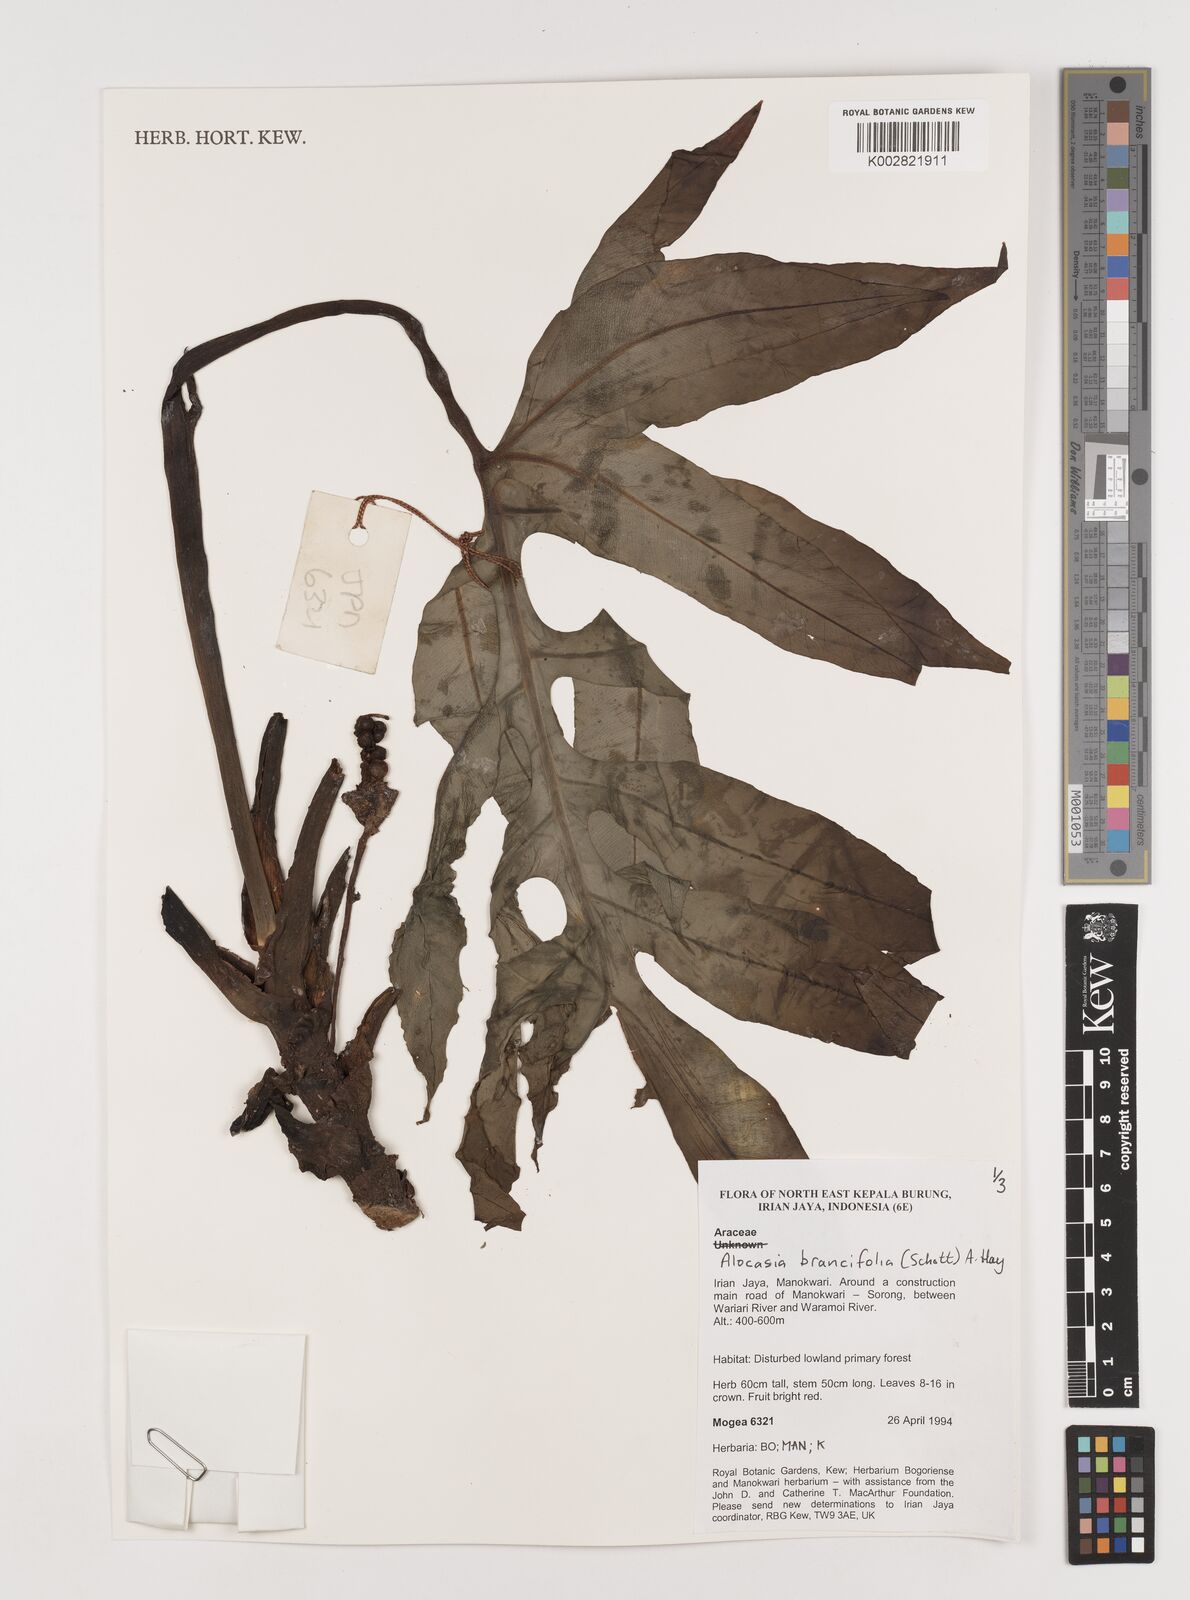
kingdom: Plantae
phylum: Tracheophyta
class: Liliopsida
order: Alismatales
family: Araceae
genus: Alocasia
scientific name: Alocasia brancifolia
